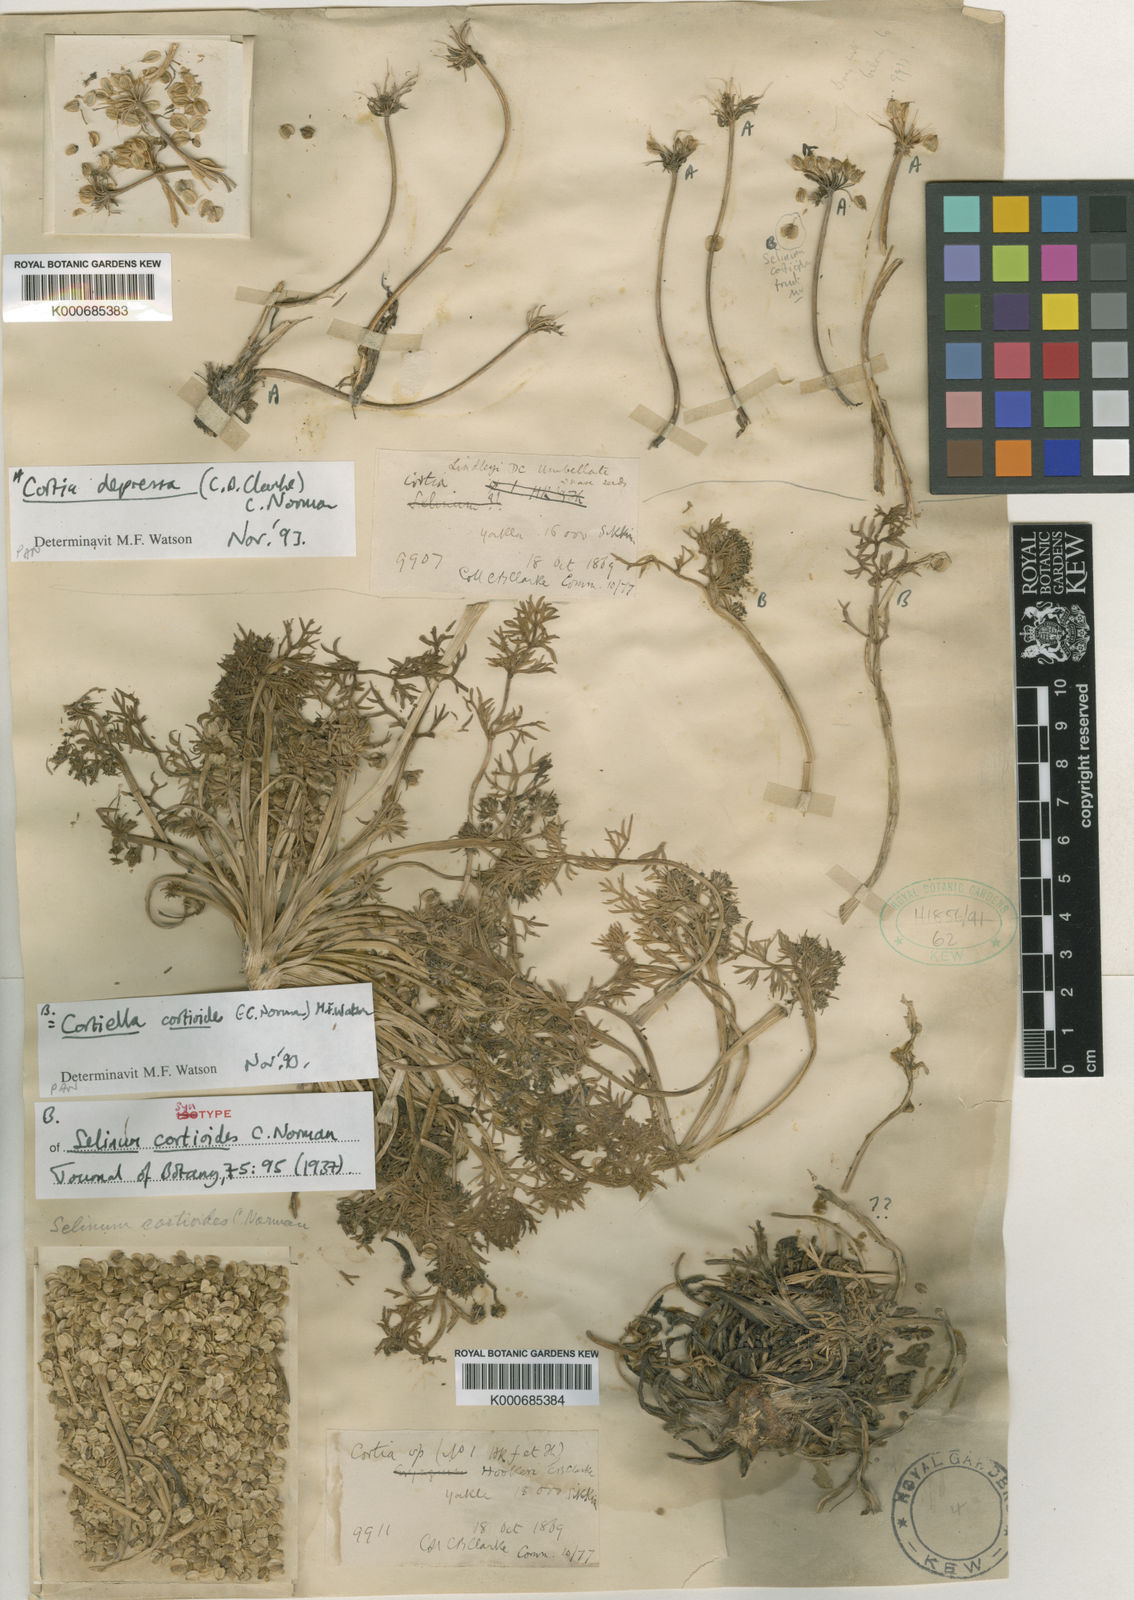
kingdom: Plantae
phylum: Tracheophyta
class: Magnoliopsida
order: Apiales
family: Apiaceae
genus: Cortiella
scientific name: Cortiella cortioides
